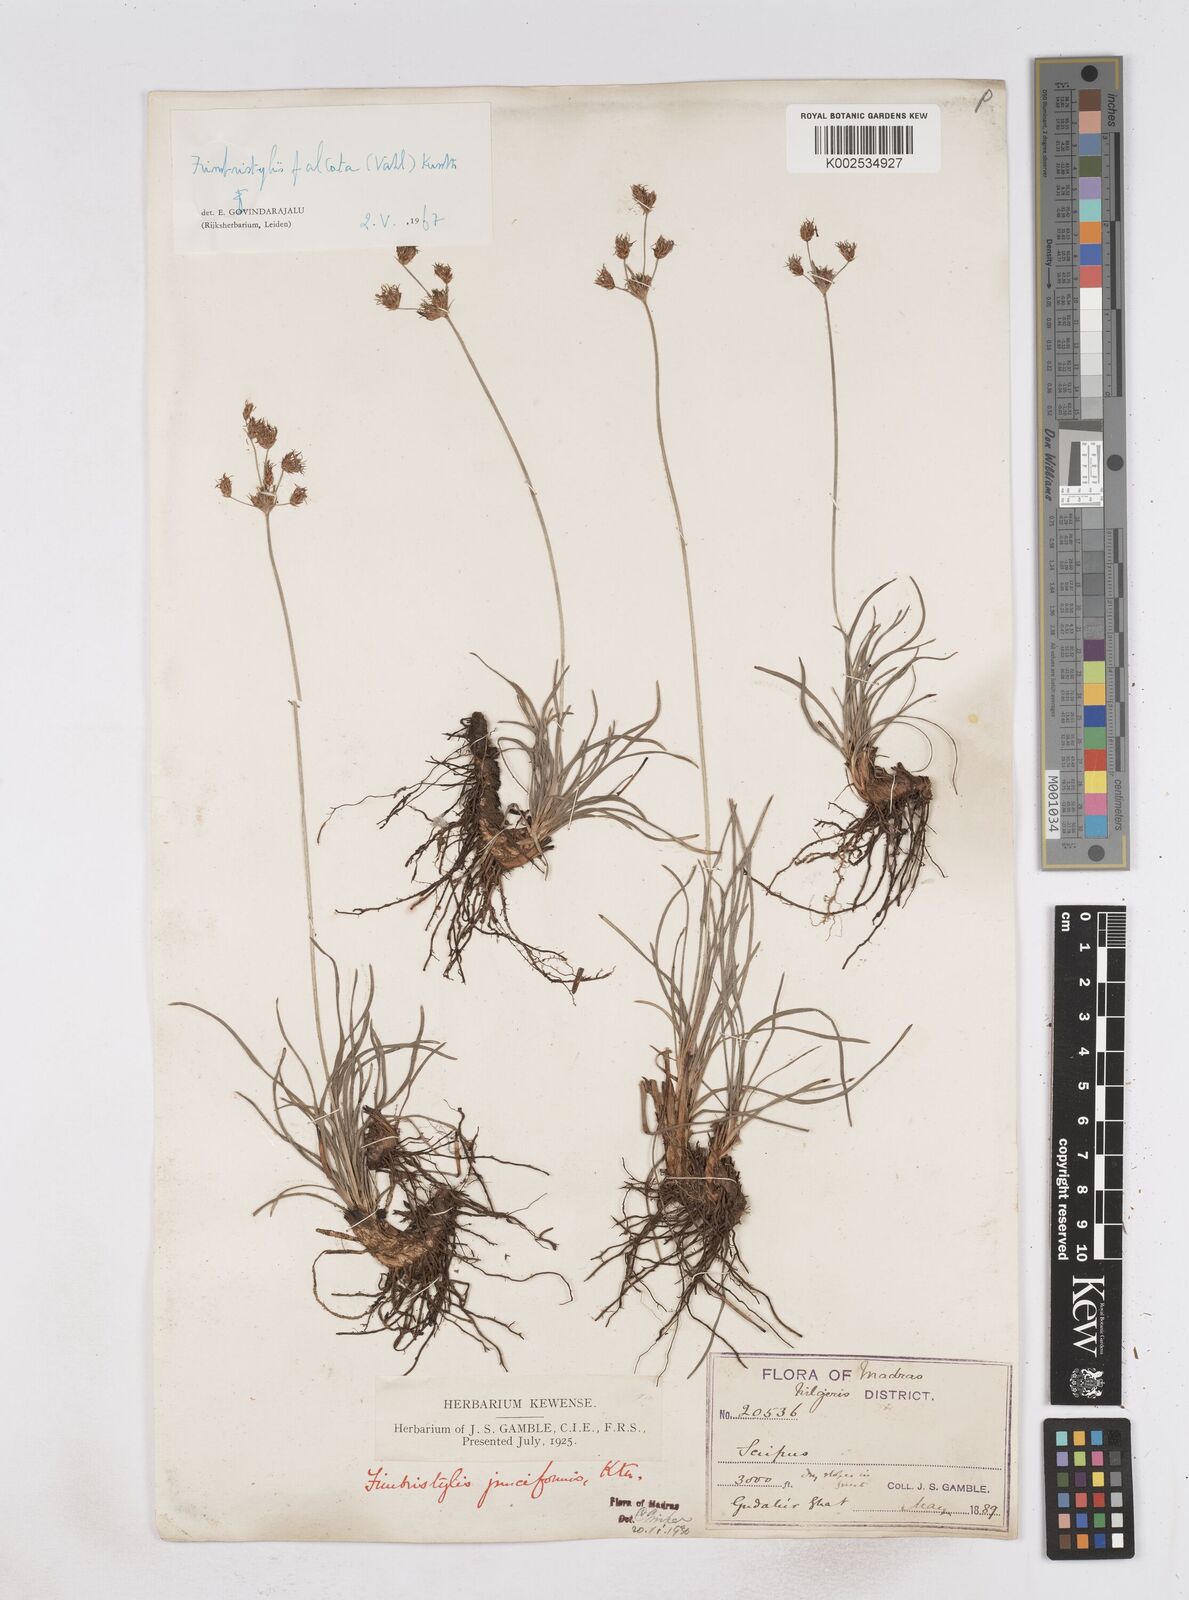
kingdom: Plantae
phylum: Tracheophyta
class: Liliopsida
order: Poales
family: Cyperaceae
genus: Fimbristylis
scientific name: Fimbristylis falcata
